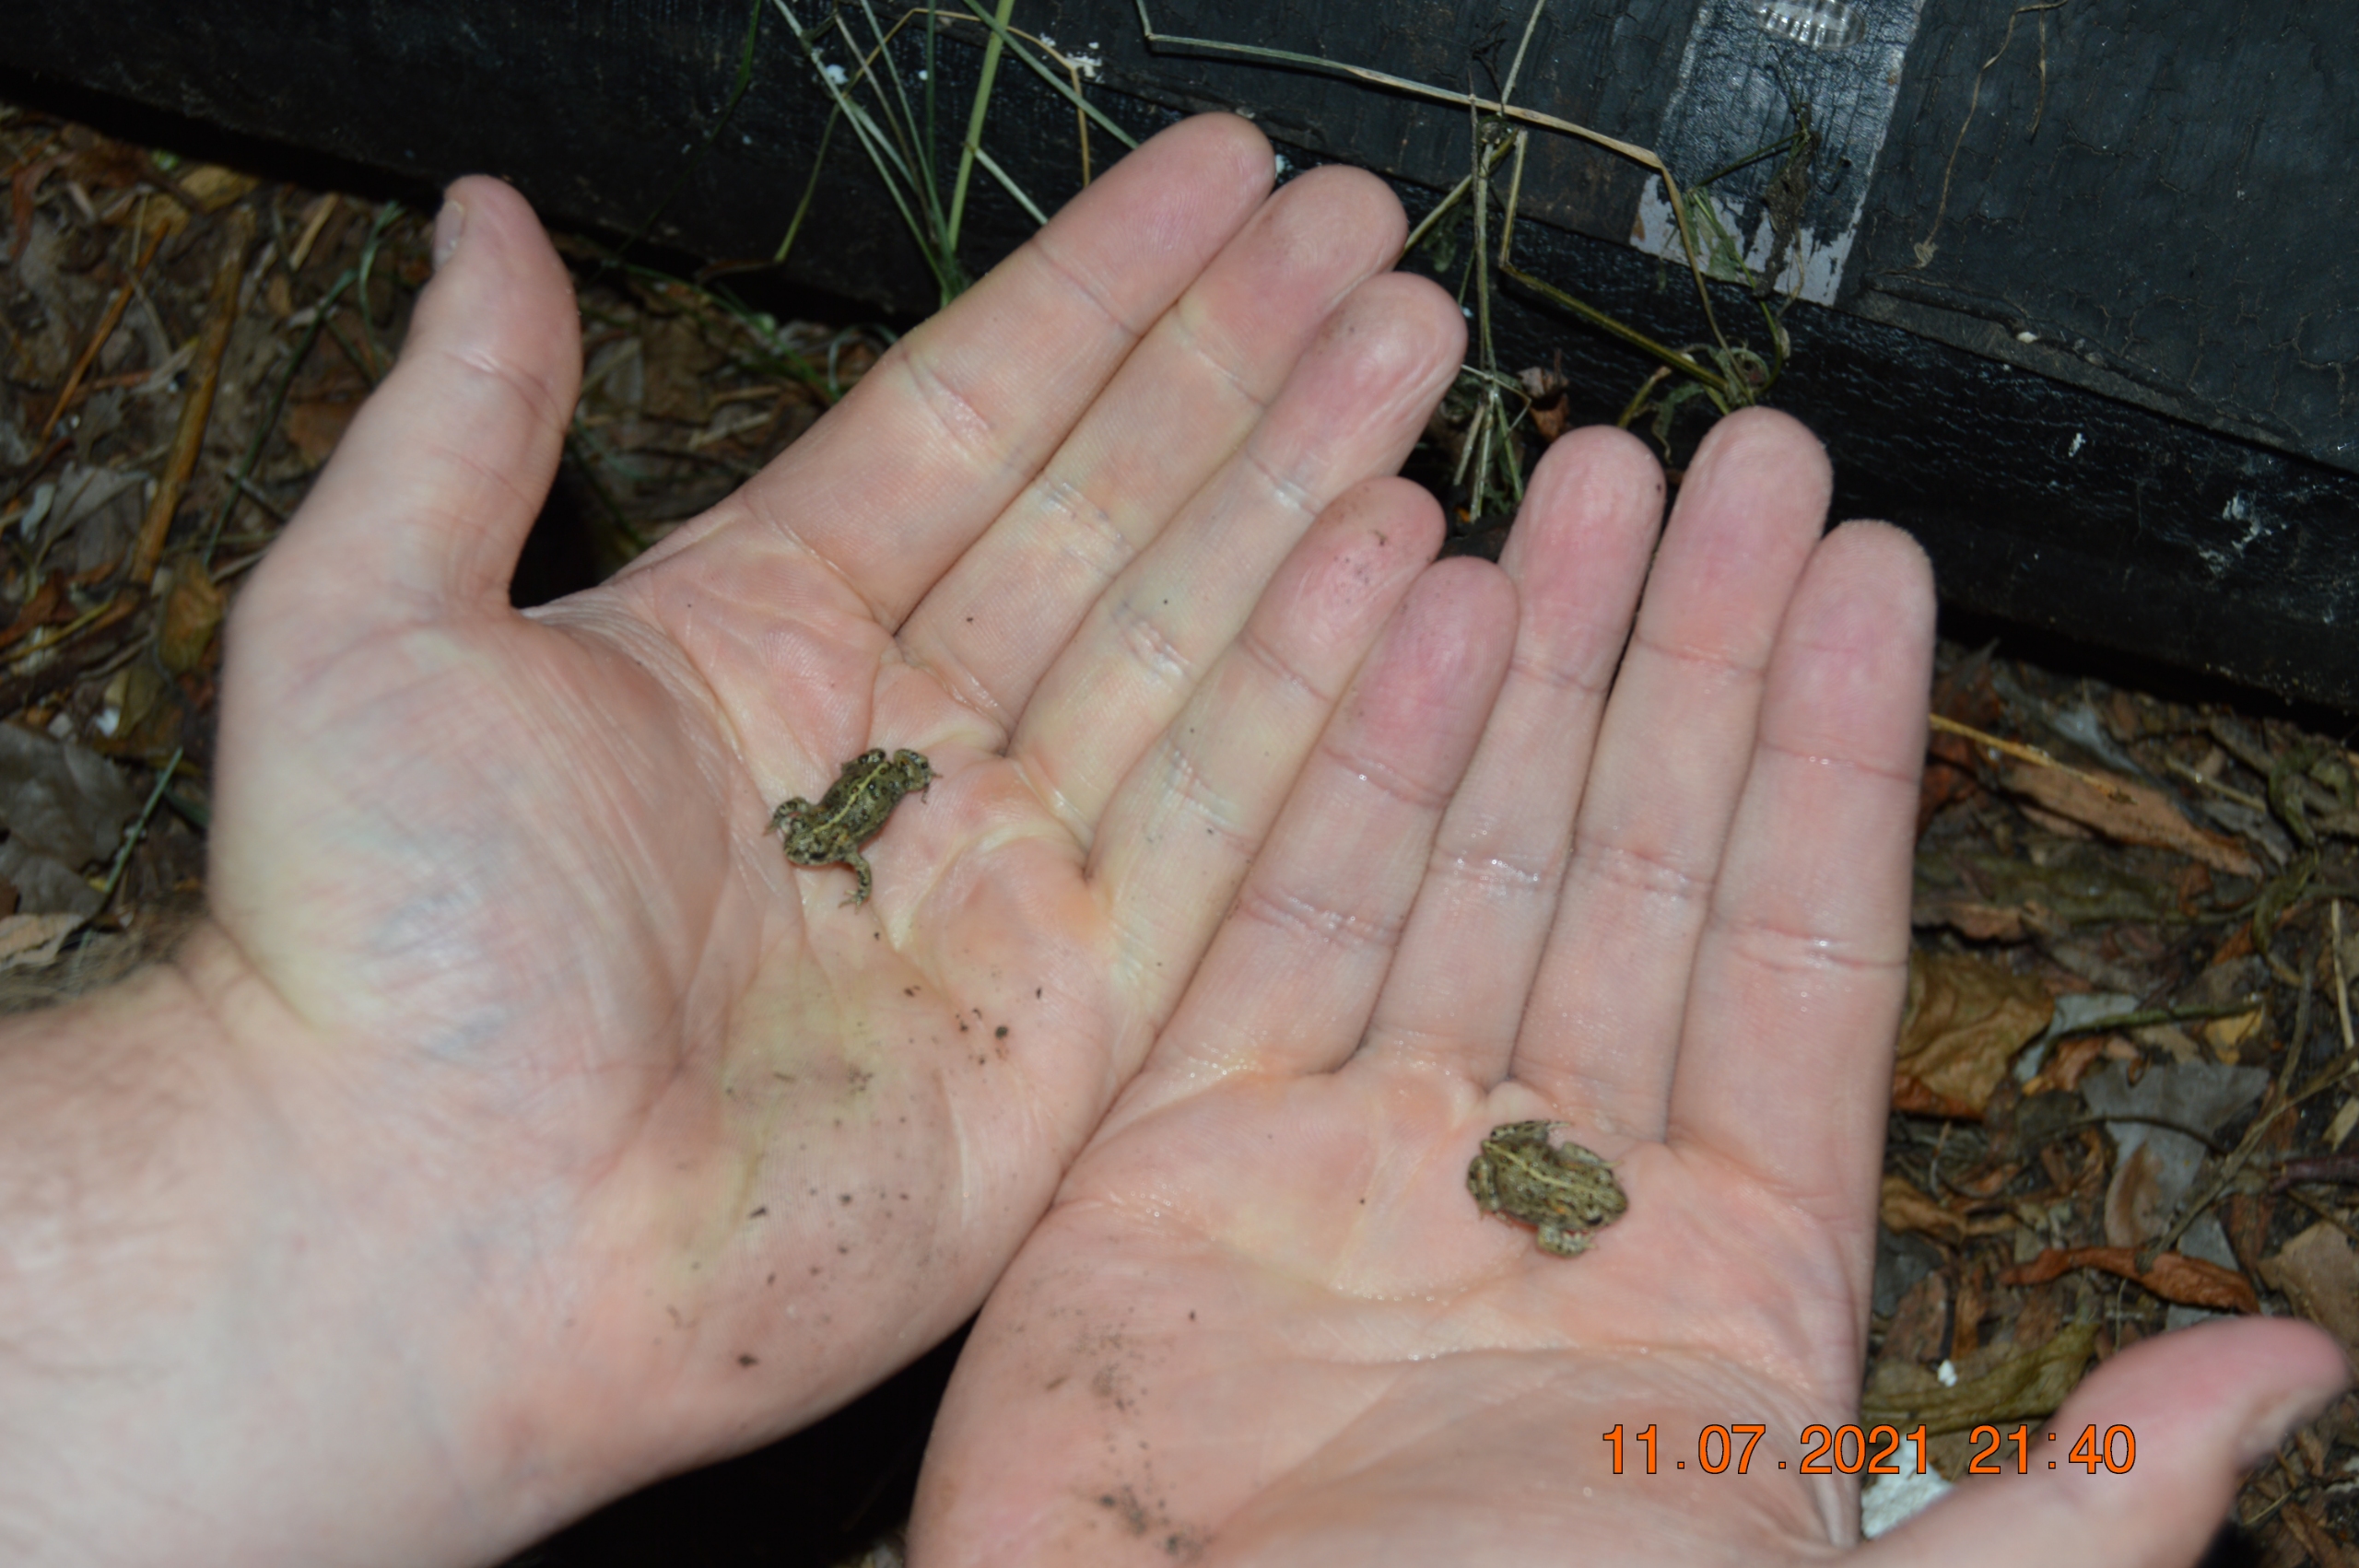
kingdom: Animalia
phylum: Chordata
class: Amphibia
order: Anura
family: Bufonidae
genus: Epidalea
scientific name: Epidalea calamita
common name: Strandtudse
